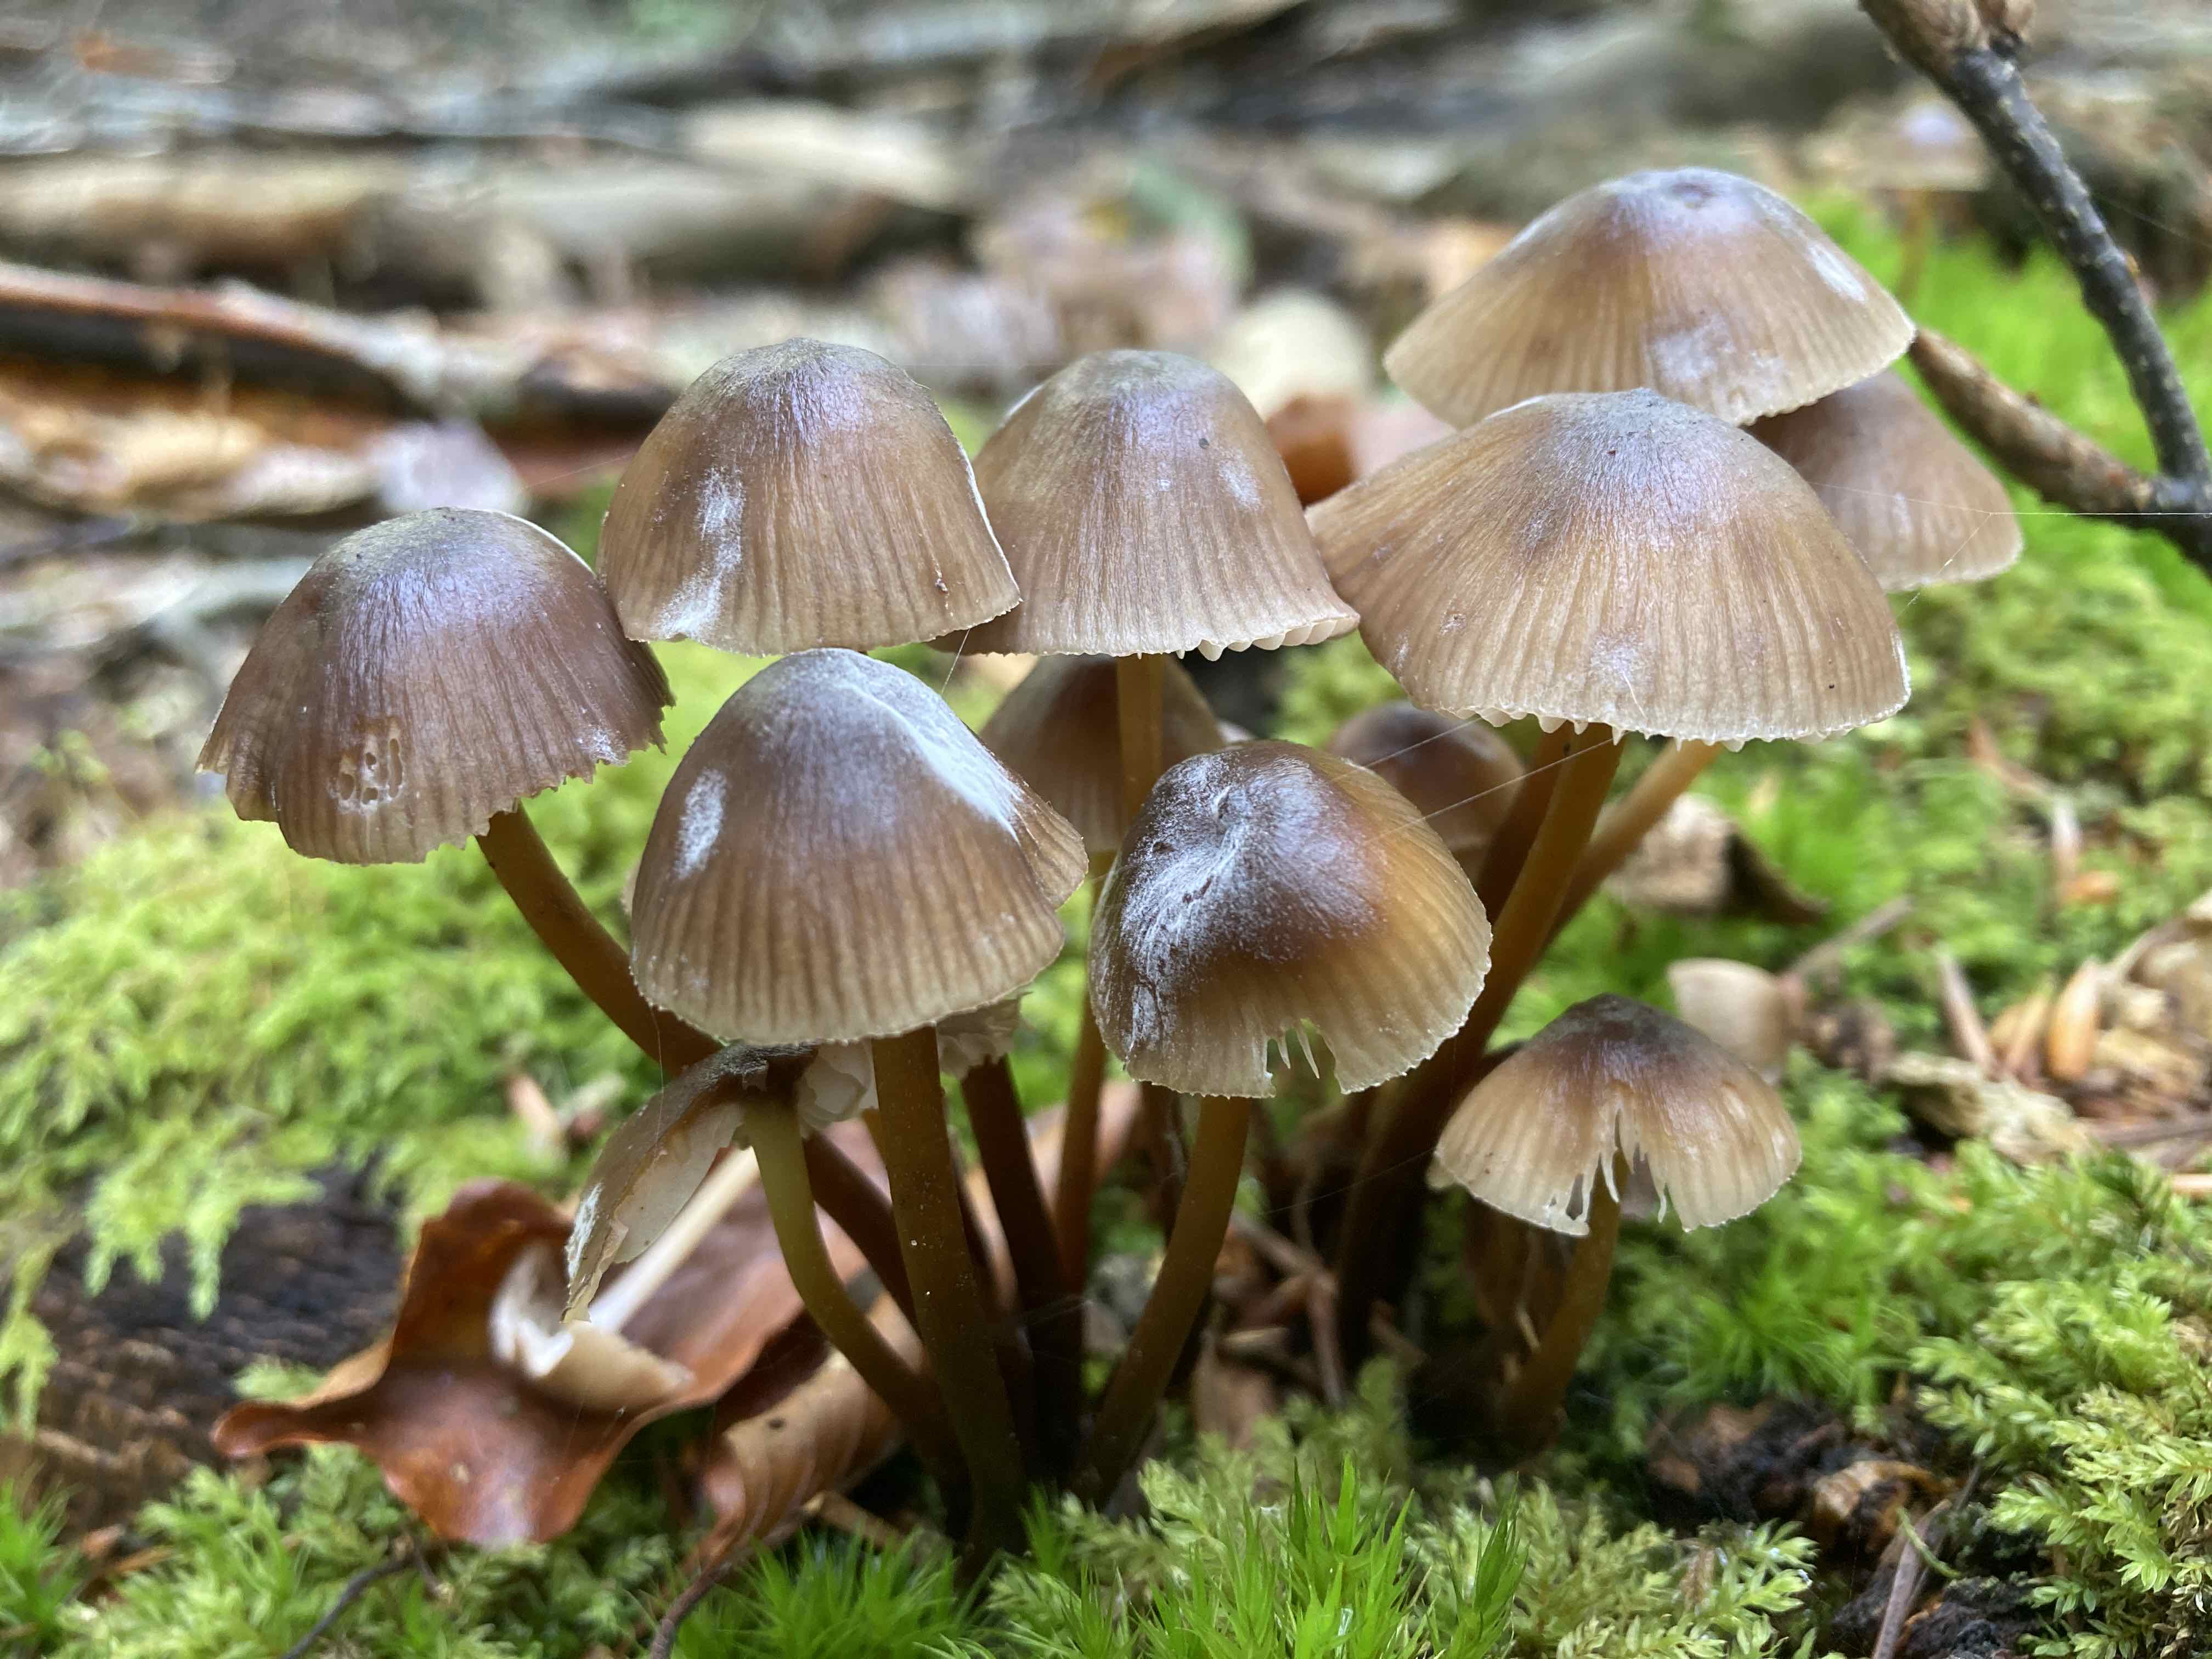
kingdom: Fungi
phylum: Basidiomycota
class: Agaricomycetes
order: Agaricales
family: Mycenaceae
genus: Mycena
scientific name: Mycena
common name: huesvamp
